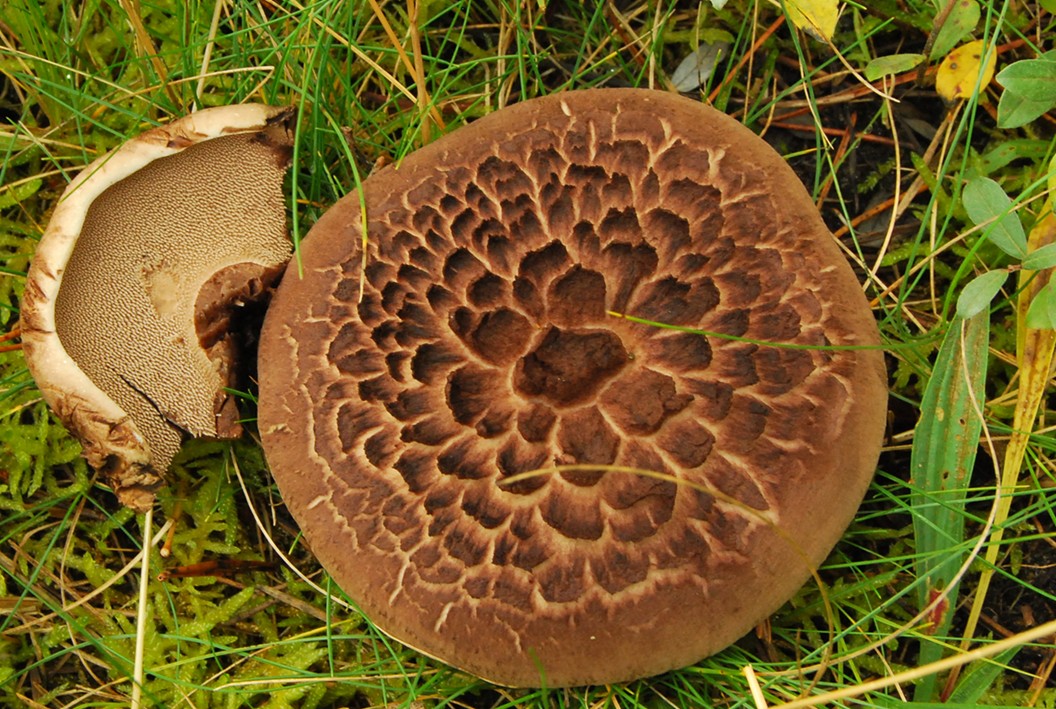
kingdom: Fungi
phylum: Basidiomycota
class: Agaricomycetes
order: Thelephorales
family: Bankeraceae
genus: Sarcodon
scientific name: Sarcodon squamosus
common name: småskællet kødpigsvamp
